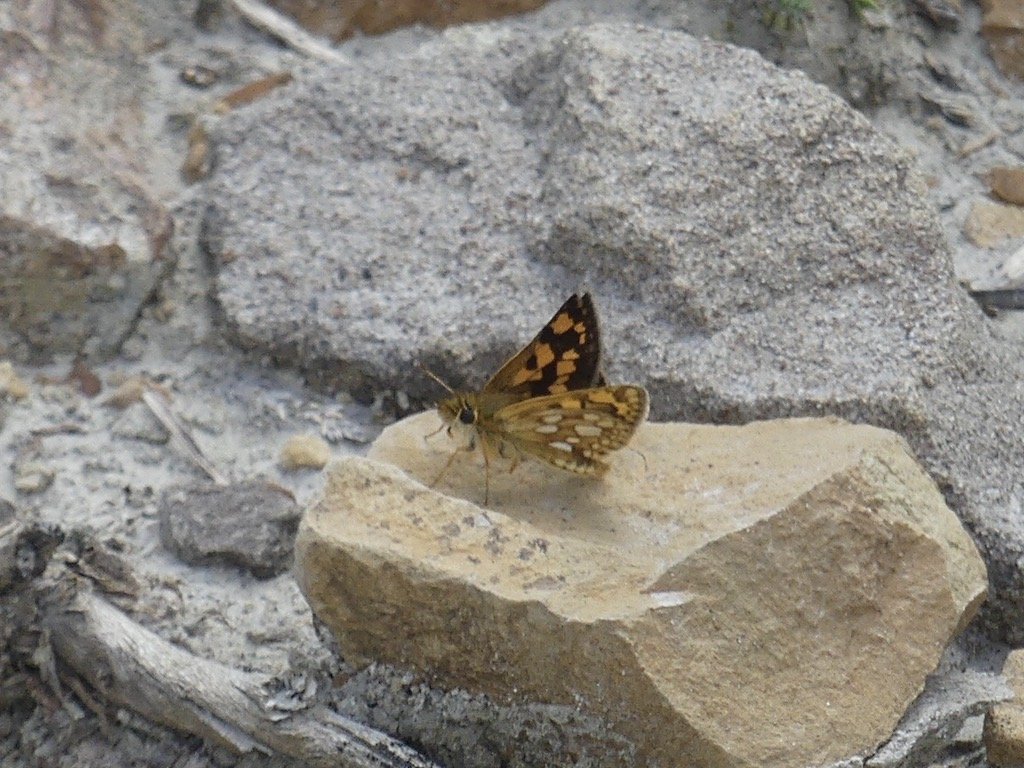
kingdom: Animalia
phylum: Arthropoda
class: Insecta
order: Lepidoptera
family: Hesperiidae
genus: Carterocephalus
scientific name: Carterocephalus palaemon
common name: Chequered Skipper
